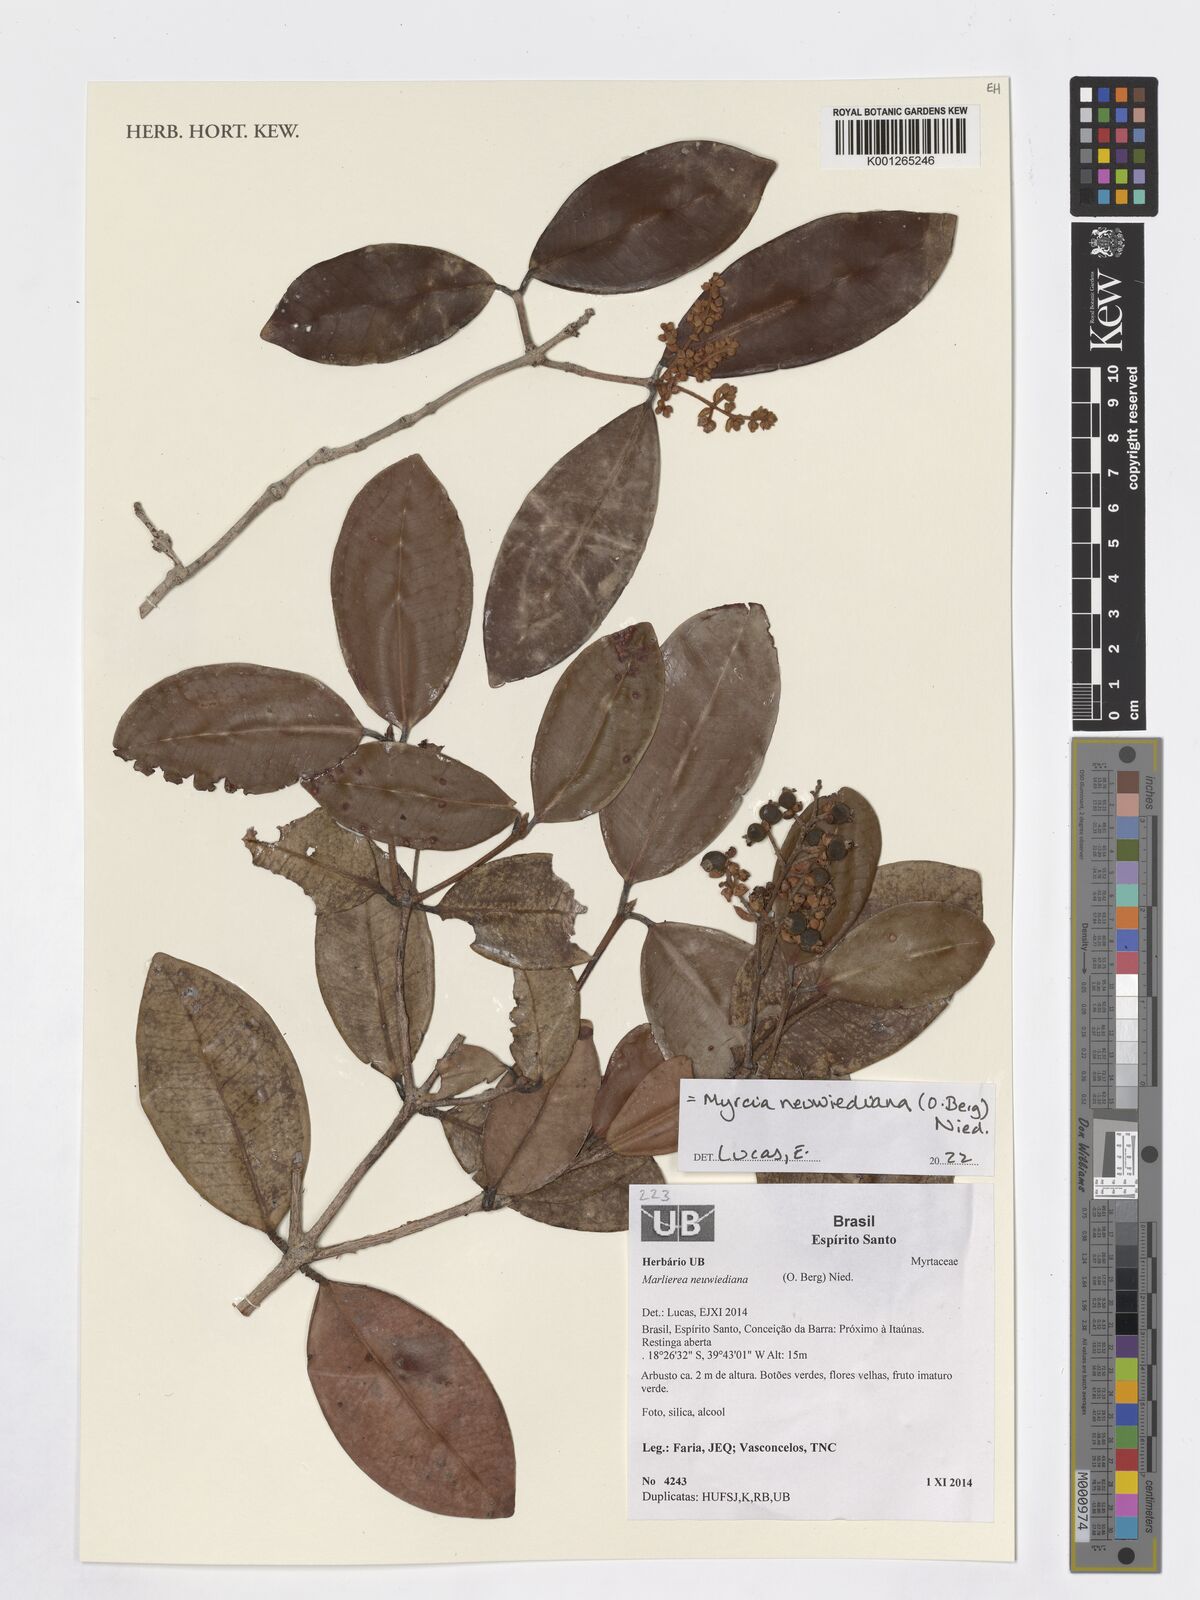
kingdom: Plantae
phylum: Tracheophyta
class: Magnoliopsida
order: Myrtales
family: Myrtaceae
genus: Myrcia
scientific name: Myrcia neuwiedeana
